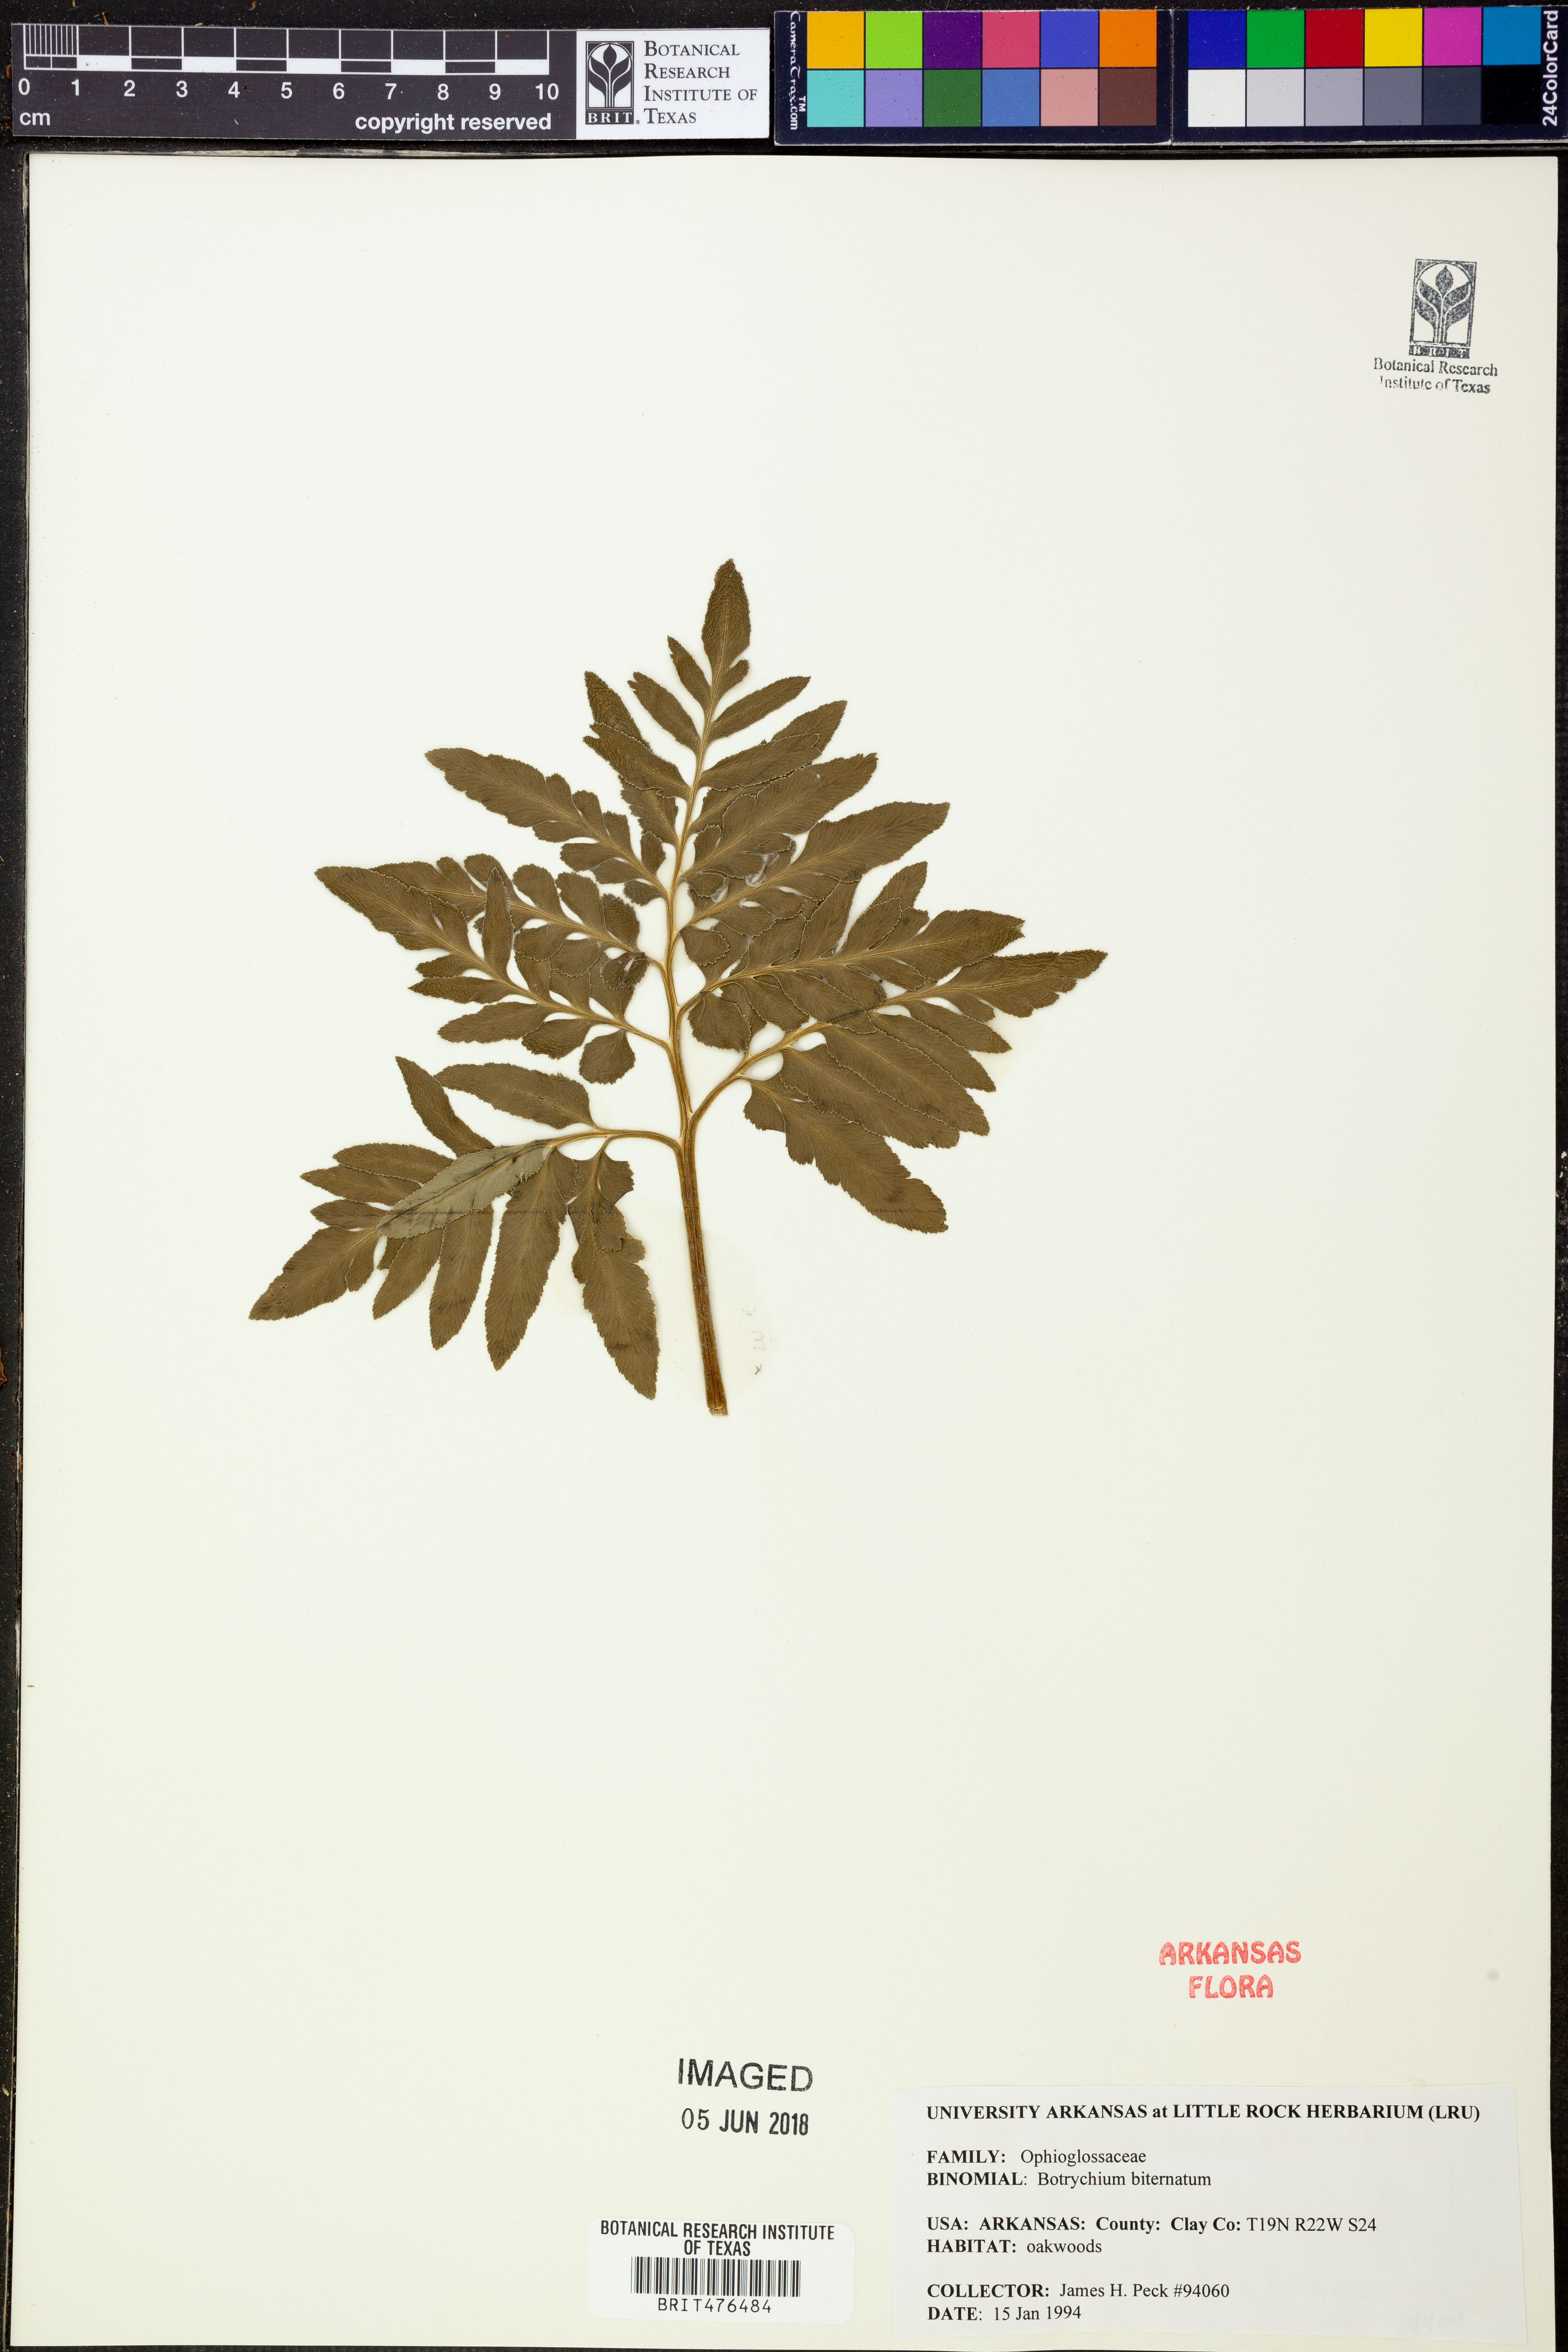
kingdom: Plantae
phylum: Tracheophyta
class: Polypodiopsida
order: Ophioglossales
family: Ophioglossaceae
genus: Sceptridium
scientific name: Sceptridium biternatum
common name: Sparse-lobed grapefern
